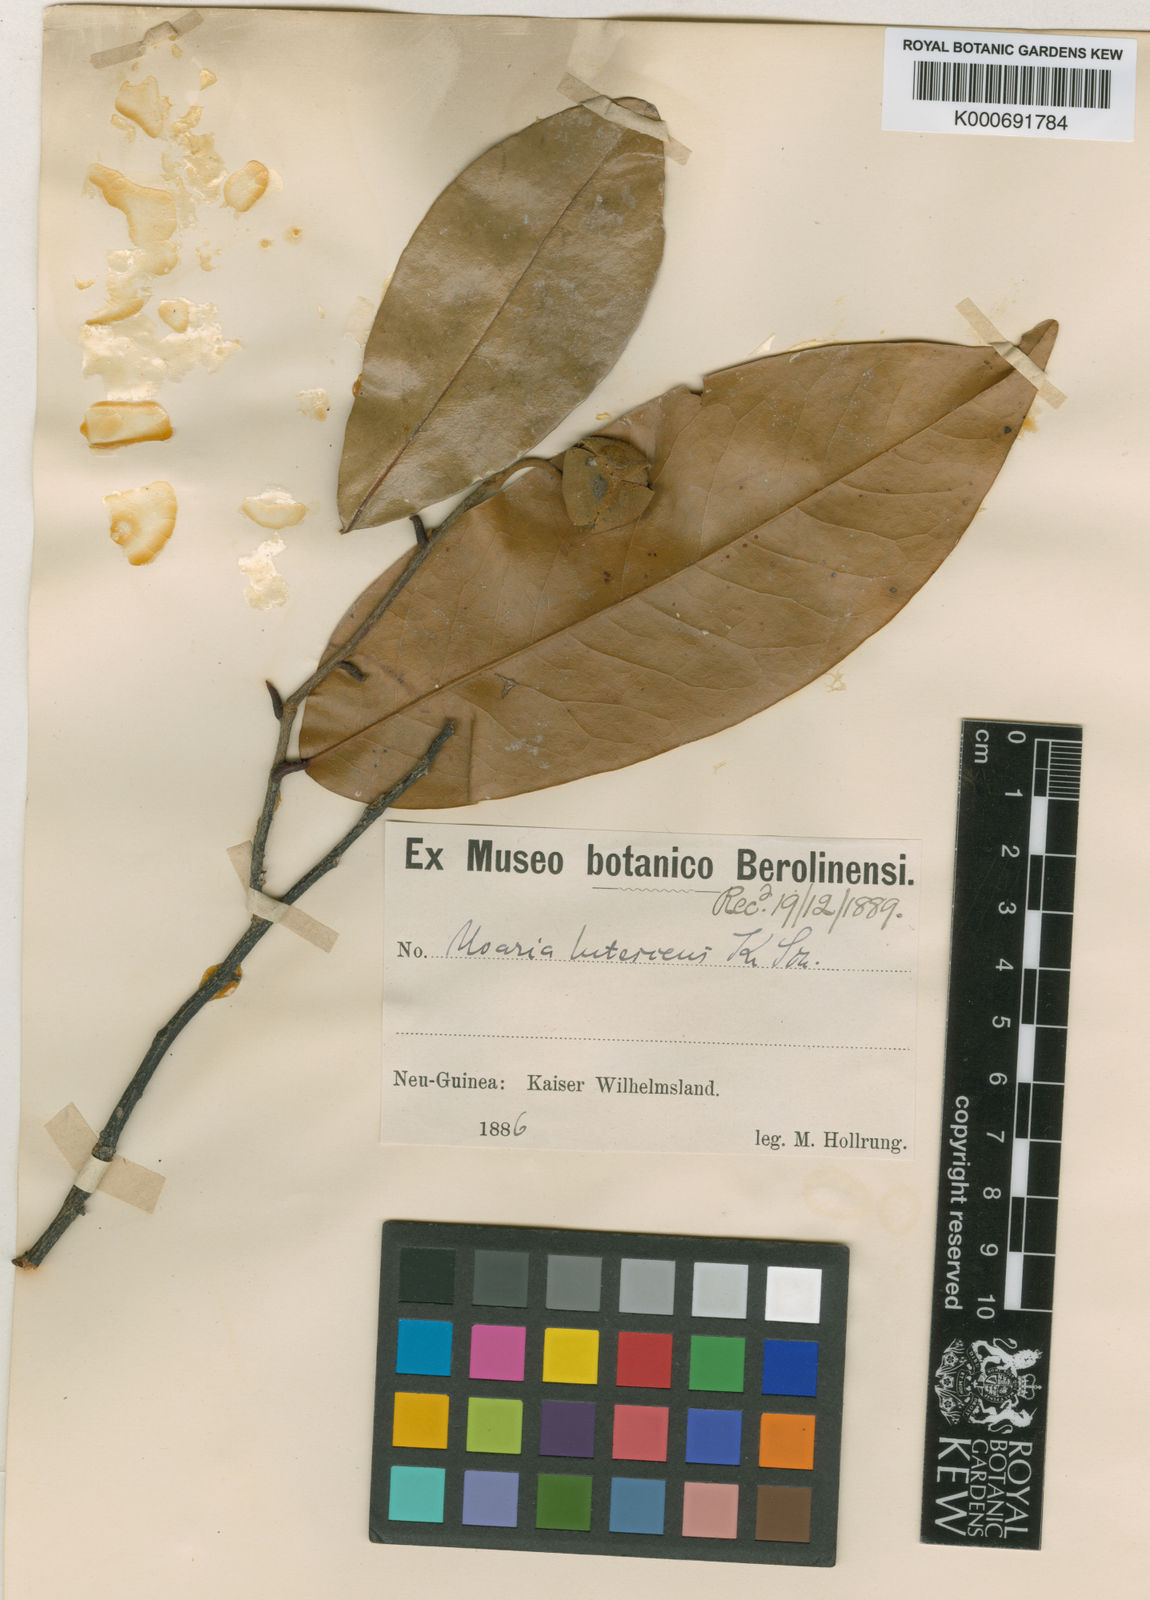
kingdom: Plantae
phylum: Tracheophyta
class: Magnoliopsida
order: Magnoliales
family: Annonaceae
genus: Melodorum
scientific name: Melodorum leichhardtii
